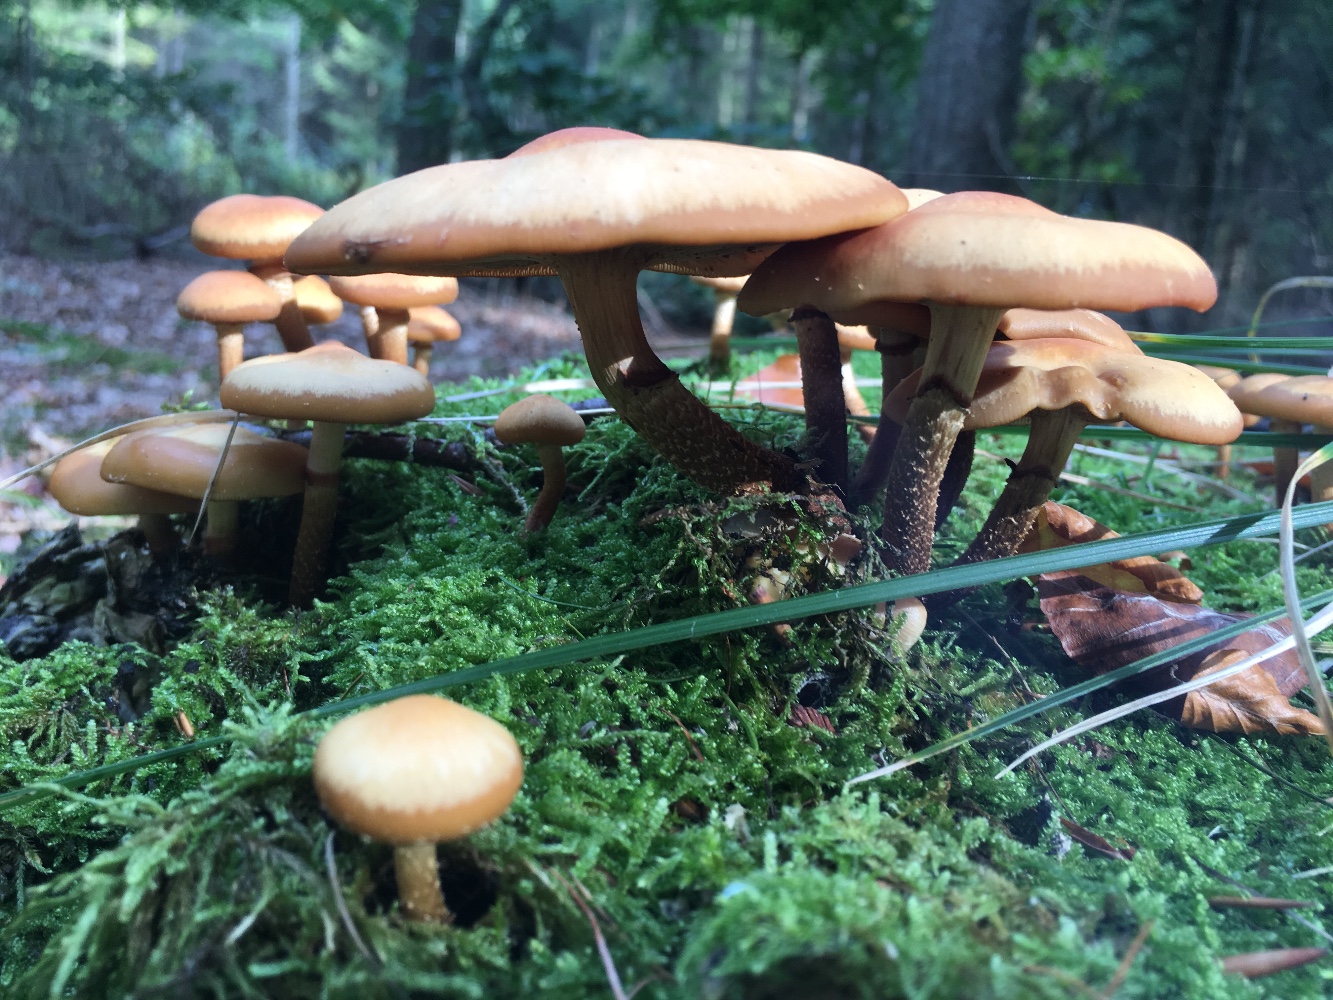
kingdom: Fungi
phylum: Basidiomycota
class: Agaricomycetes
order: Agaricales
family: Strophariaceae
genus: Kuehneromyces
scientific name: Kuehneromyces mutabilis
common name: foranderlig skælhat
